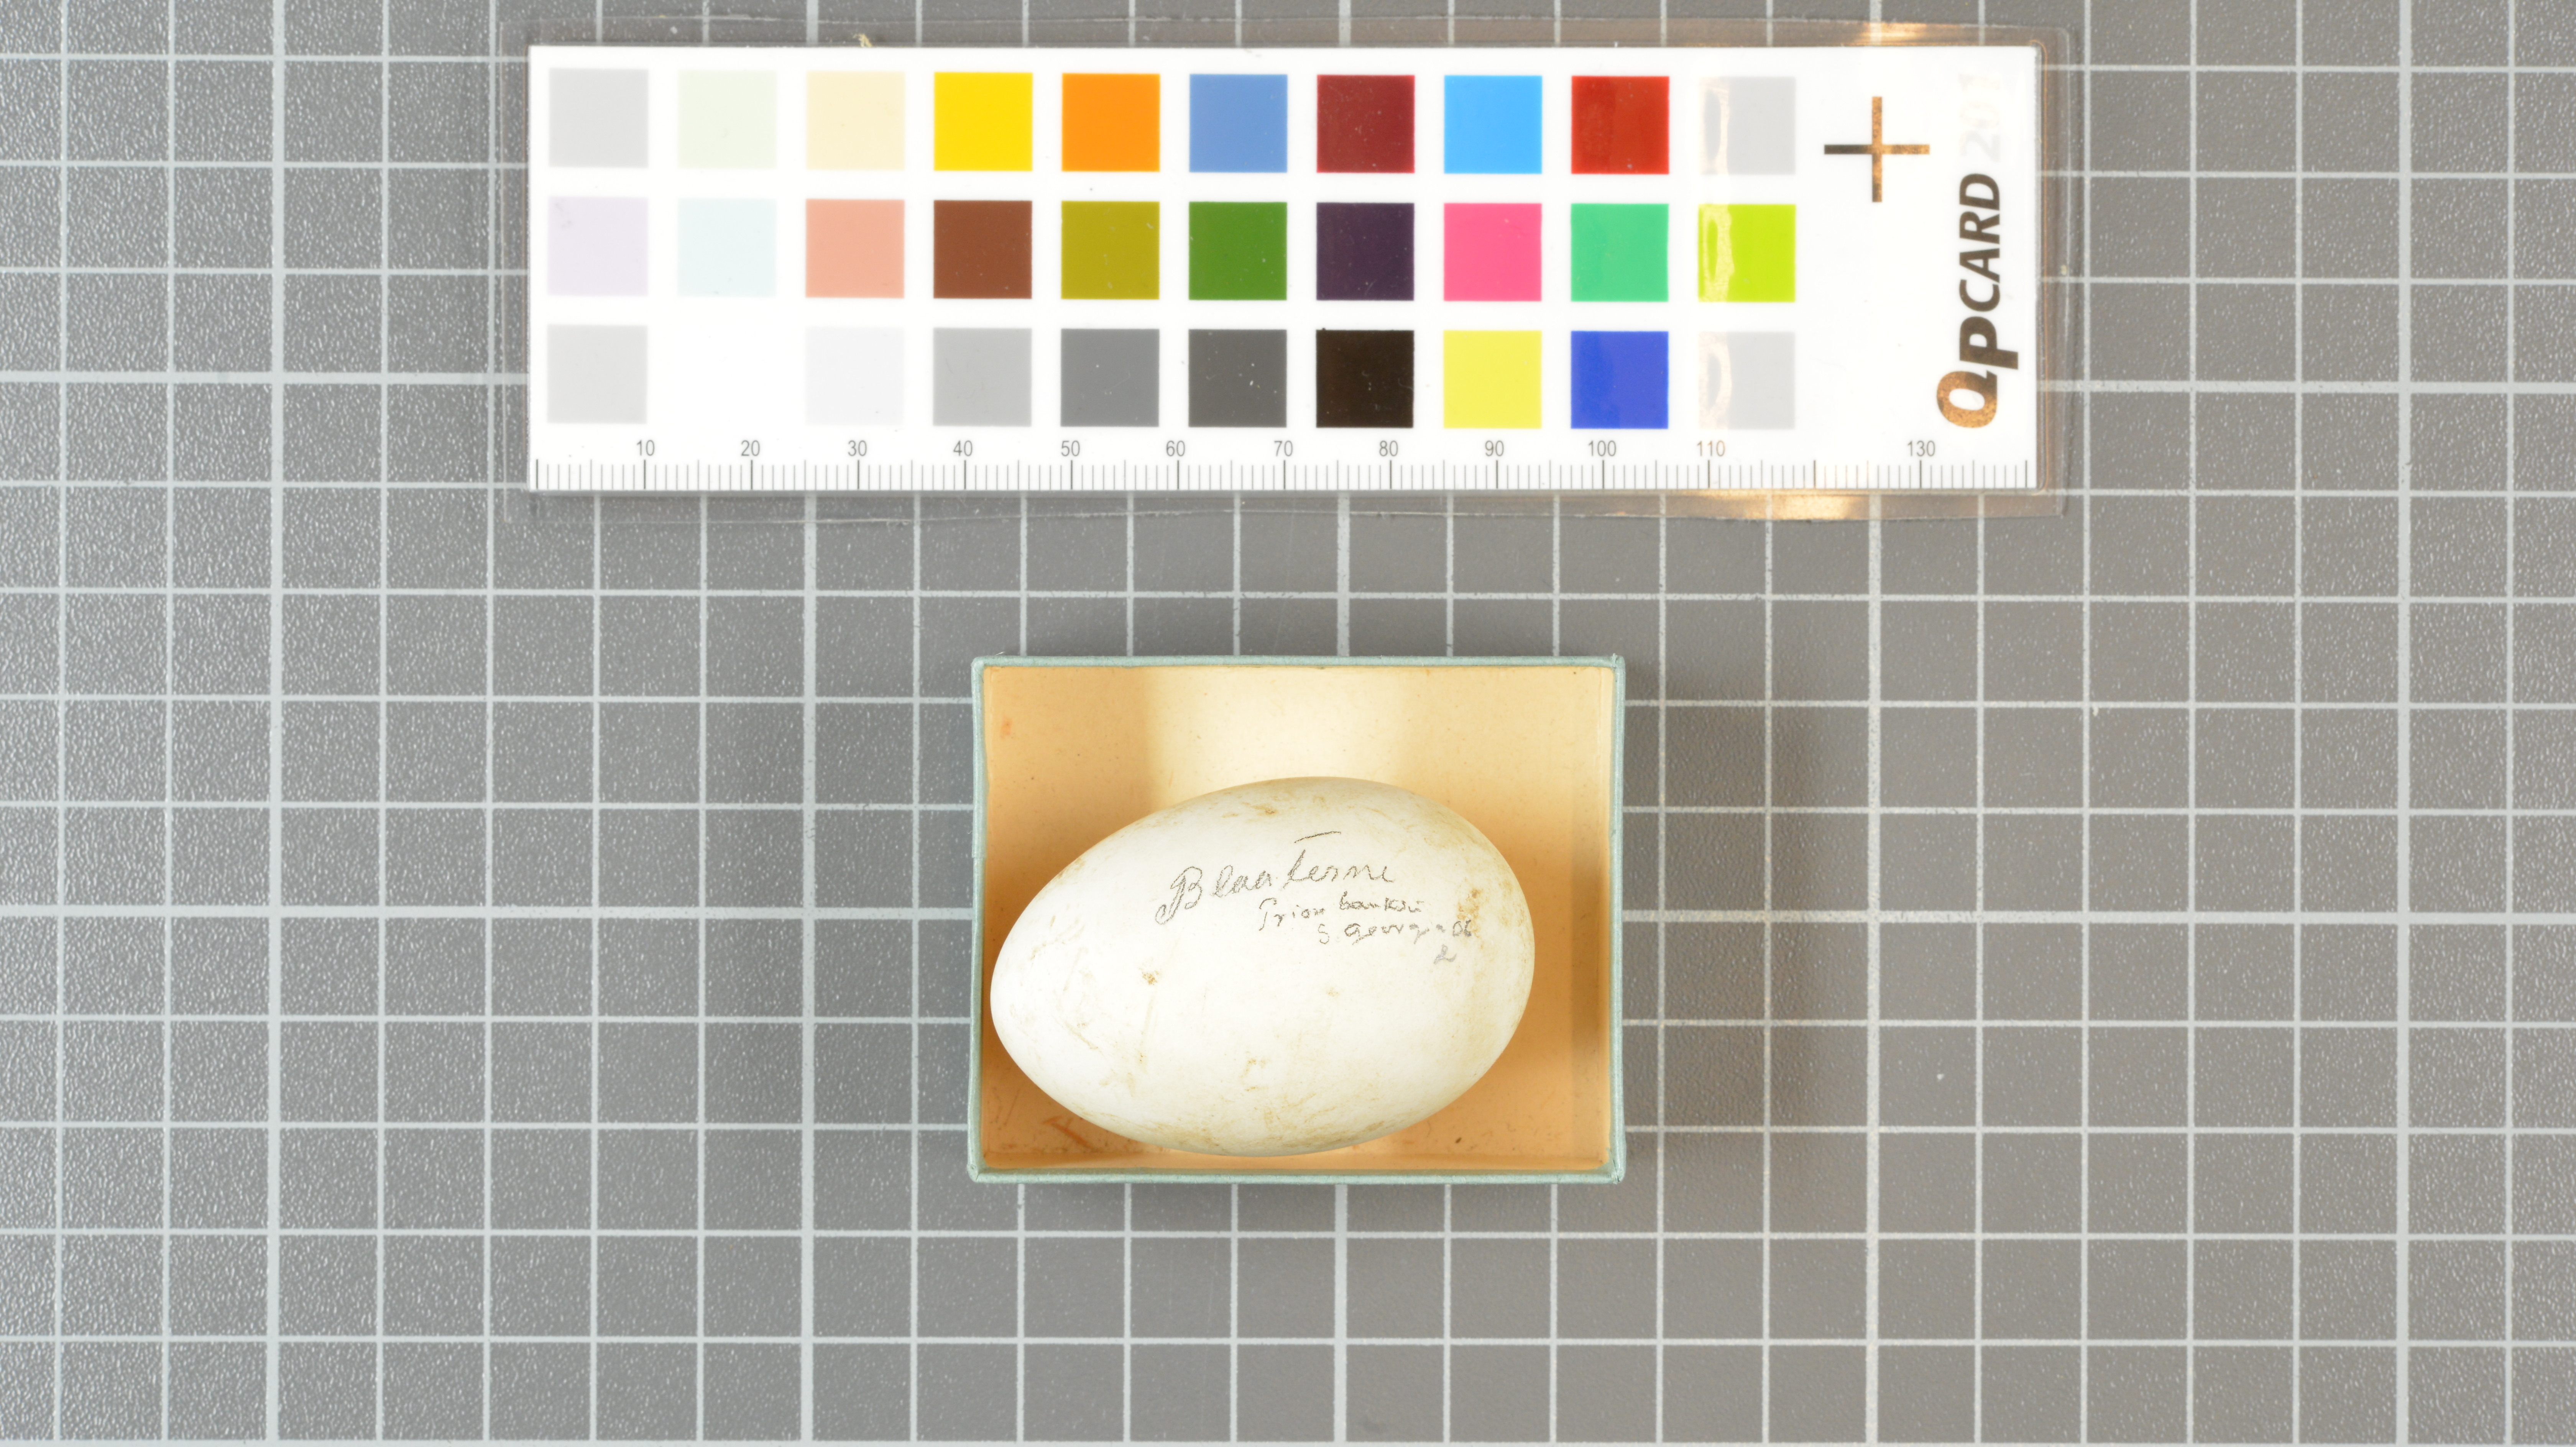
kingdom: Animalia
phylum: Chordata
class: Aves
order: Procellariiformes
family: Procellariidae
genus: Pachyptila
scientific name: Pachyptila desolata
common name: Antarctic prion
